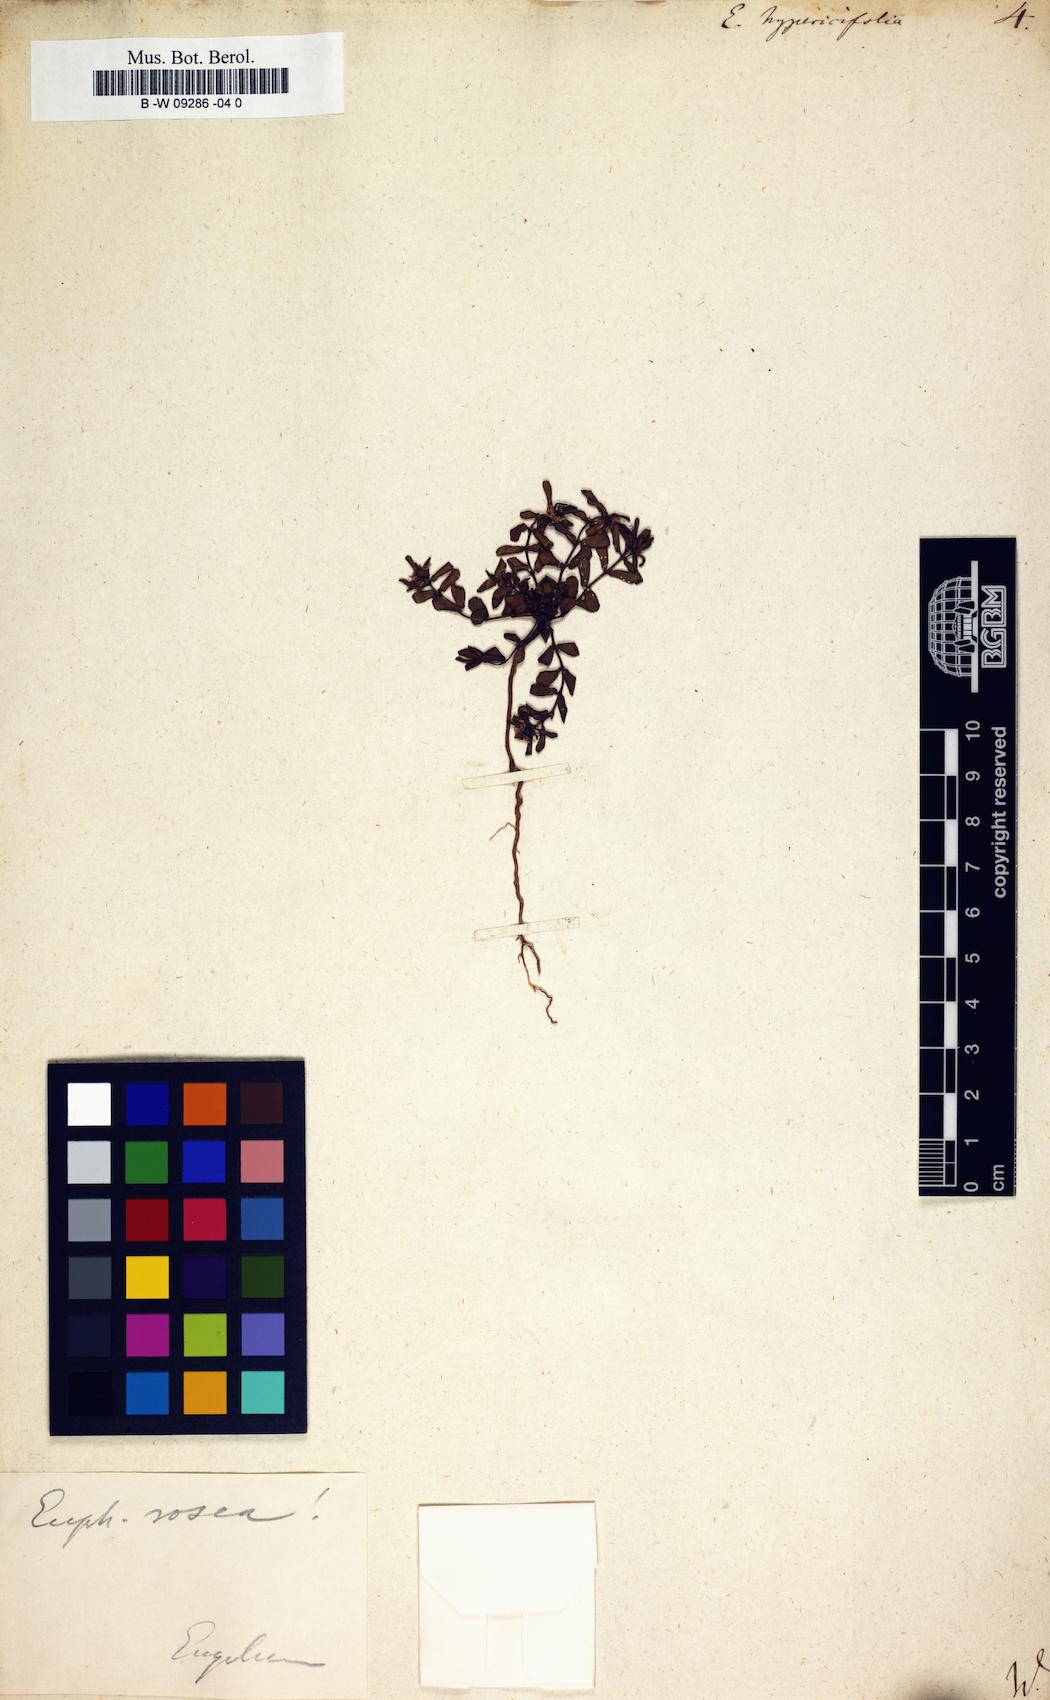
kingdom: Plantae
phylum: Tracheophyta
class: Magnoliopsida
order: Malpighiales
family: Euphorbiaceae
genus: Euphorbia
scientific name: Euphorbia hypericifolia
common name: Graceful sandmat
